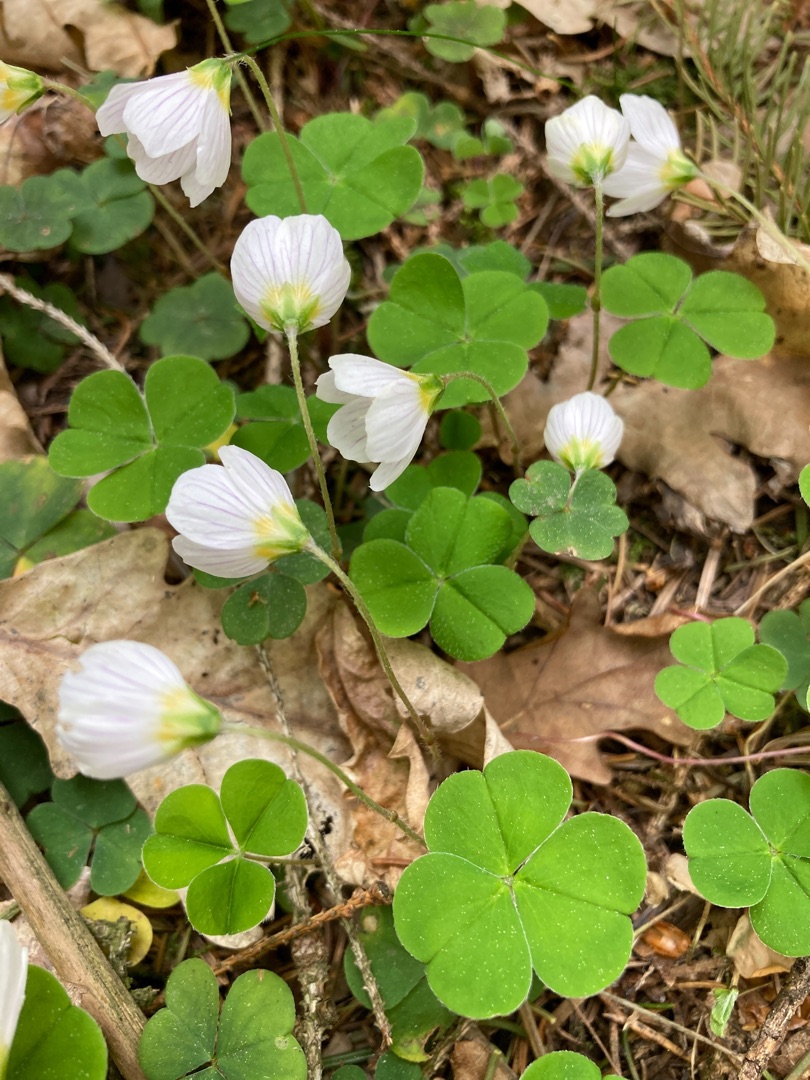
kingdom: Plantae
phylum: Tracheophyta
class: Magnoliopsida
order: Oxalidales
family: Oxalidaceae
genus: Oxalis
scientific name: Oxalis acetosella
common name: Skovsyre
